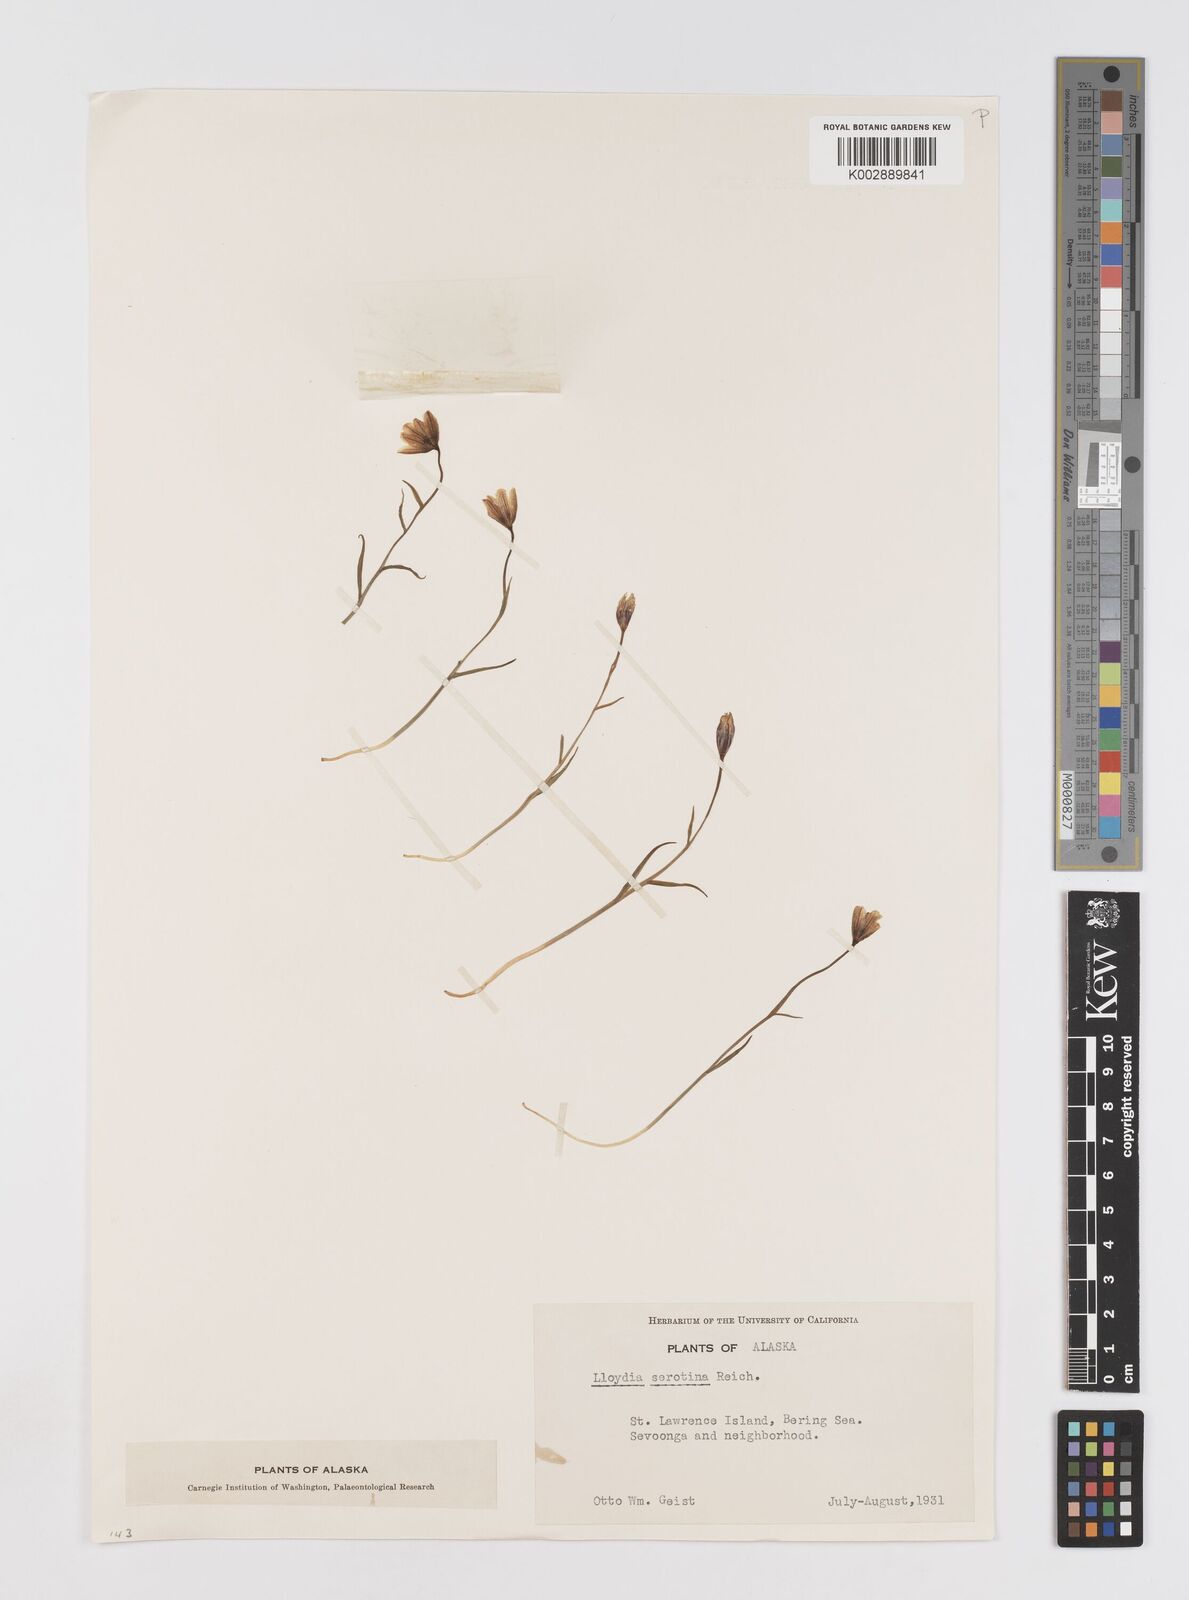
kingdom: Plantae
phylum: Tracheophyta
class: Liliopsida
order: Liliales
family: Liliaceae
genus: Gagea
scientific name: Gagea serotina
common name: Snowdon lily
